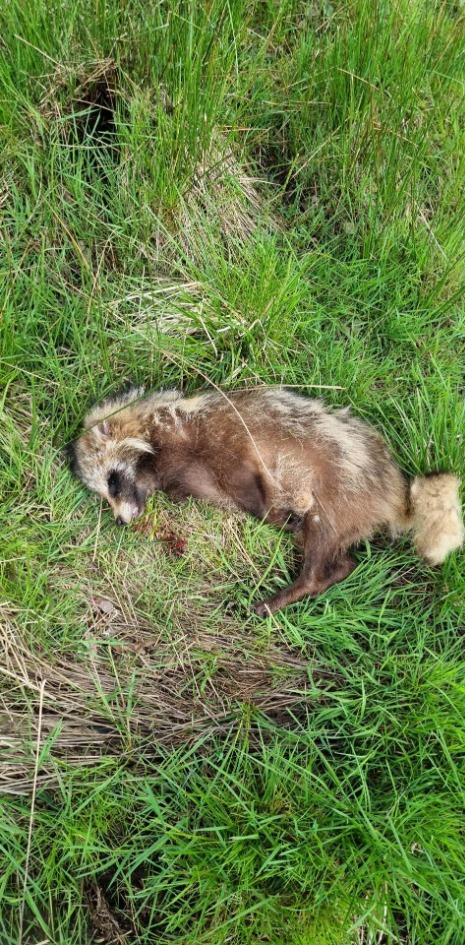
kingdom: Animalia
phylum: Chordata
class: Mammalia
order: Carnivora
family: Canidae
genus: Nyctereutes
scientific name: Nyctereutes procyonoides
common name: Mårhund
